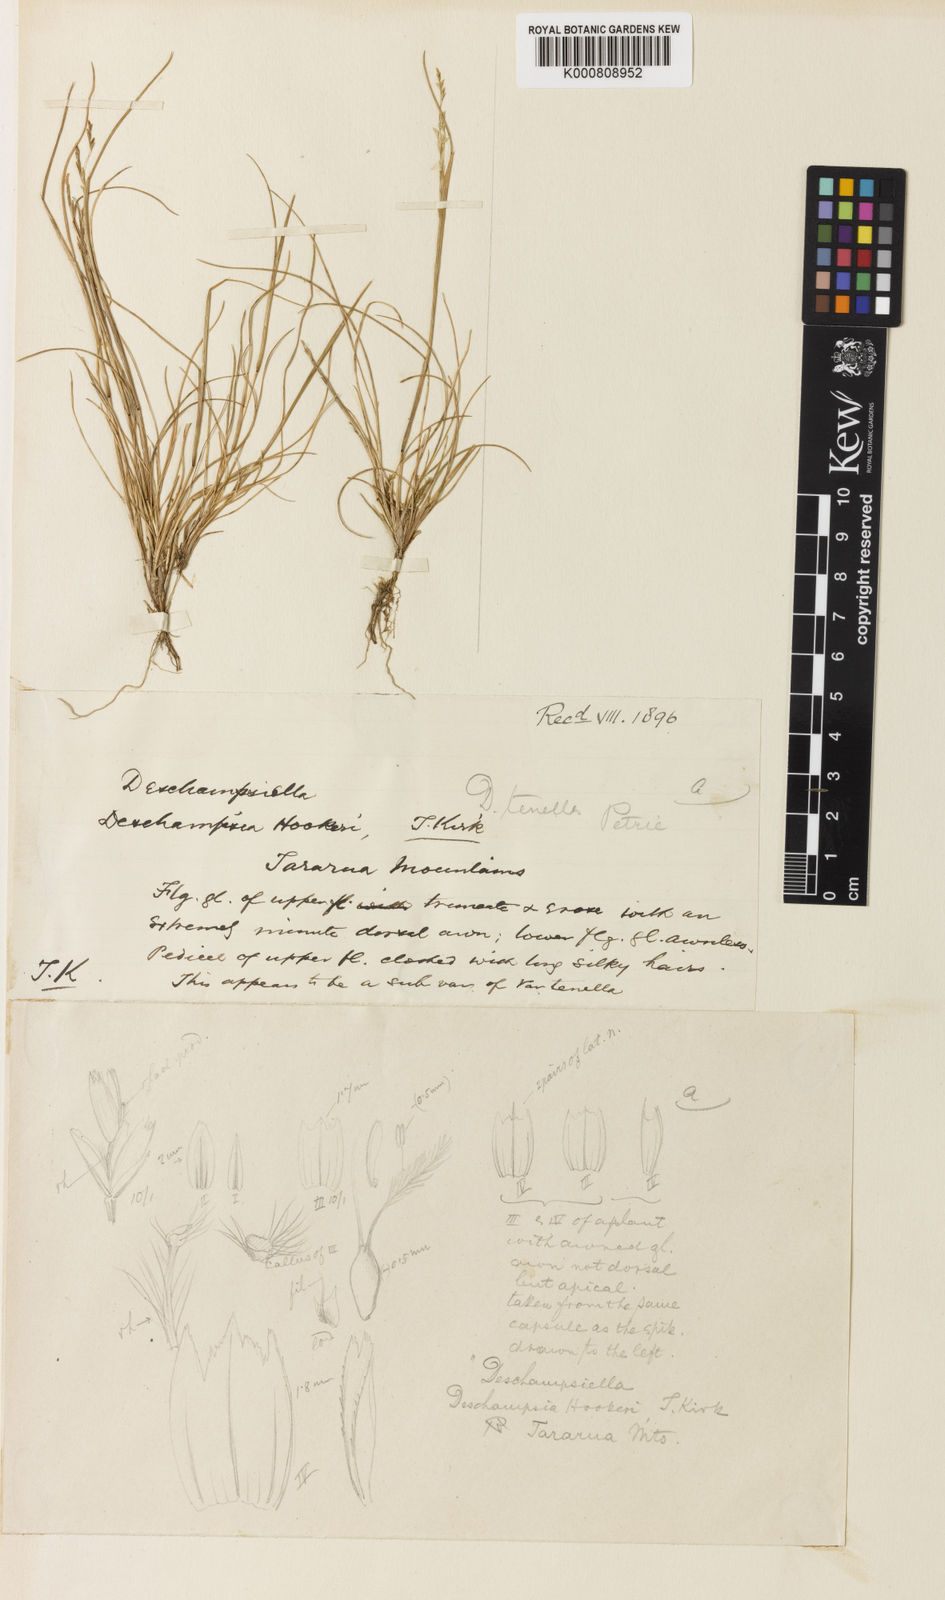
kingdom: Plantae
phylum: Tracheophyta
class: Liliopsida
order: Poales
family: Poaceae
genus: Deschampsia
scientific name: Deschampsia tenella
